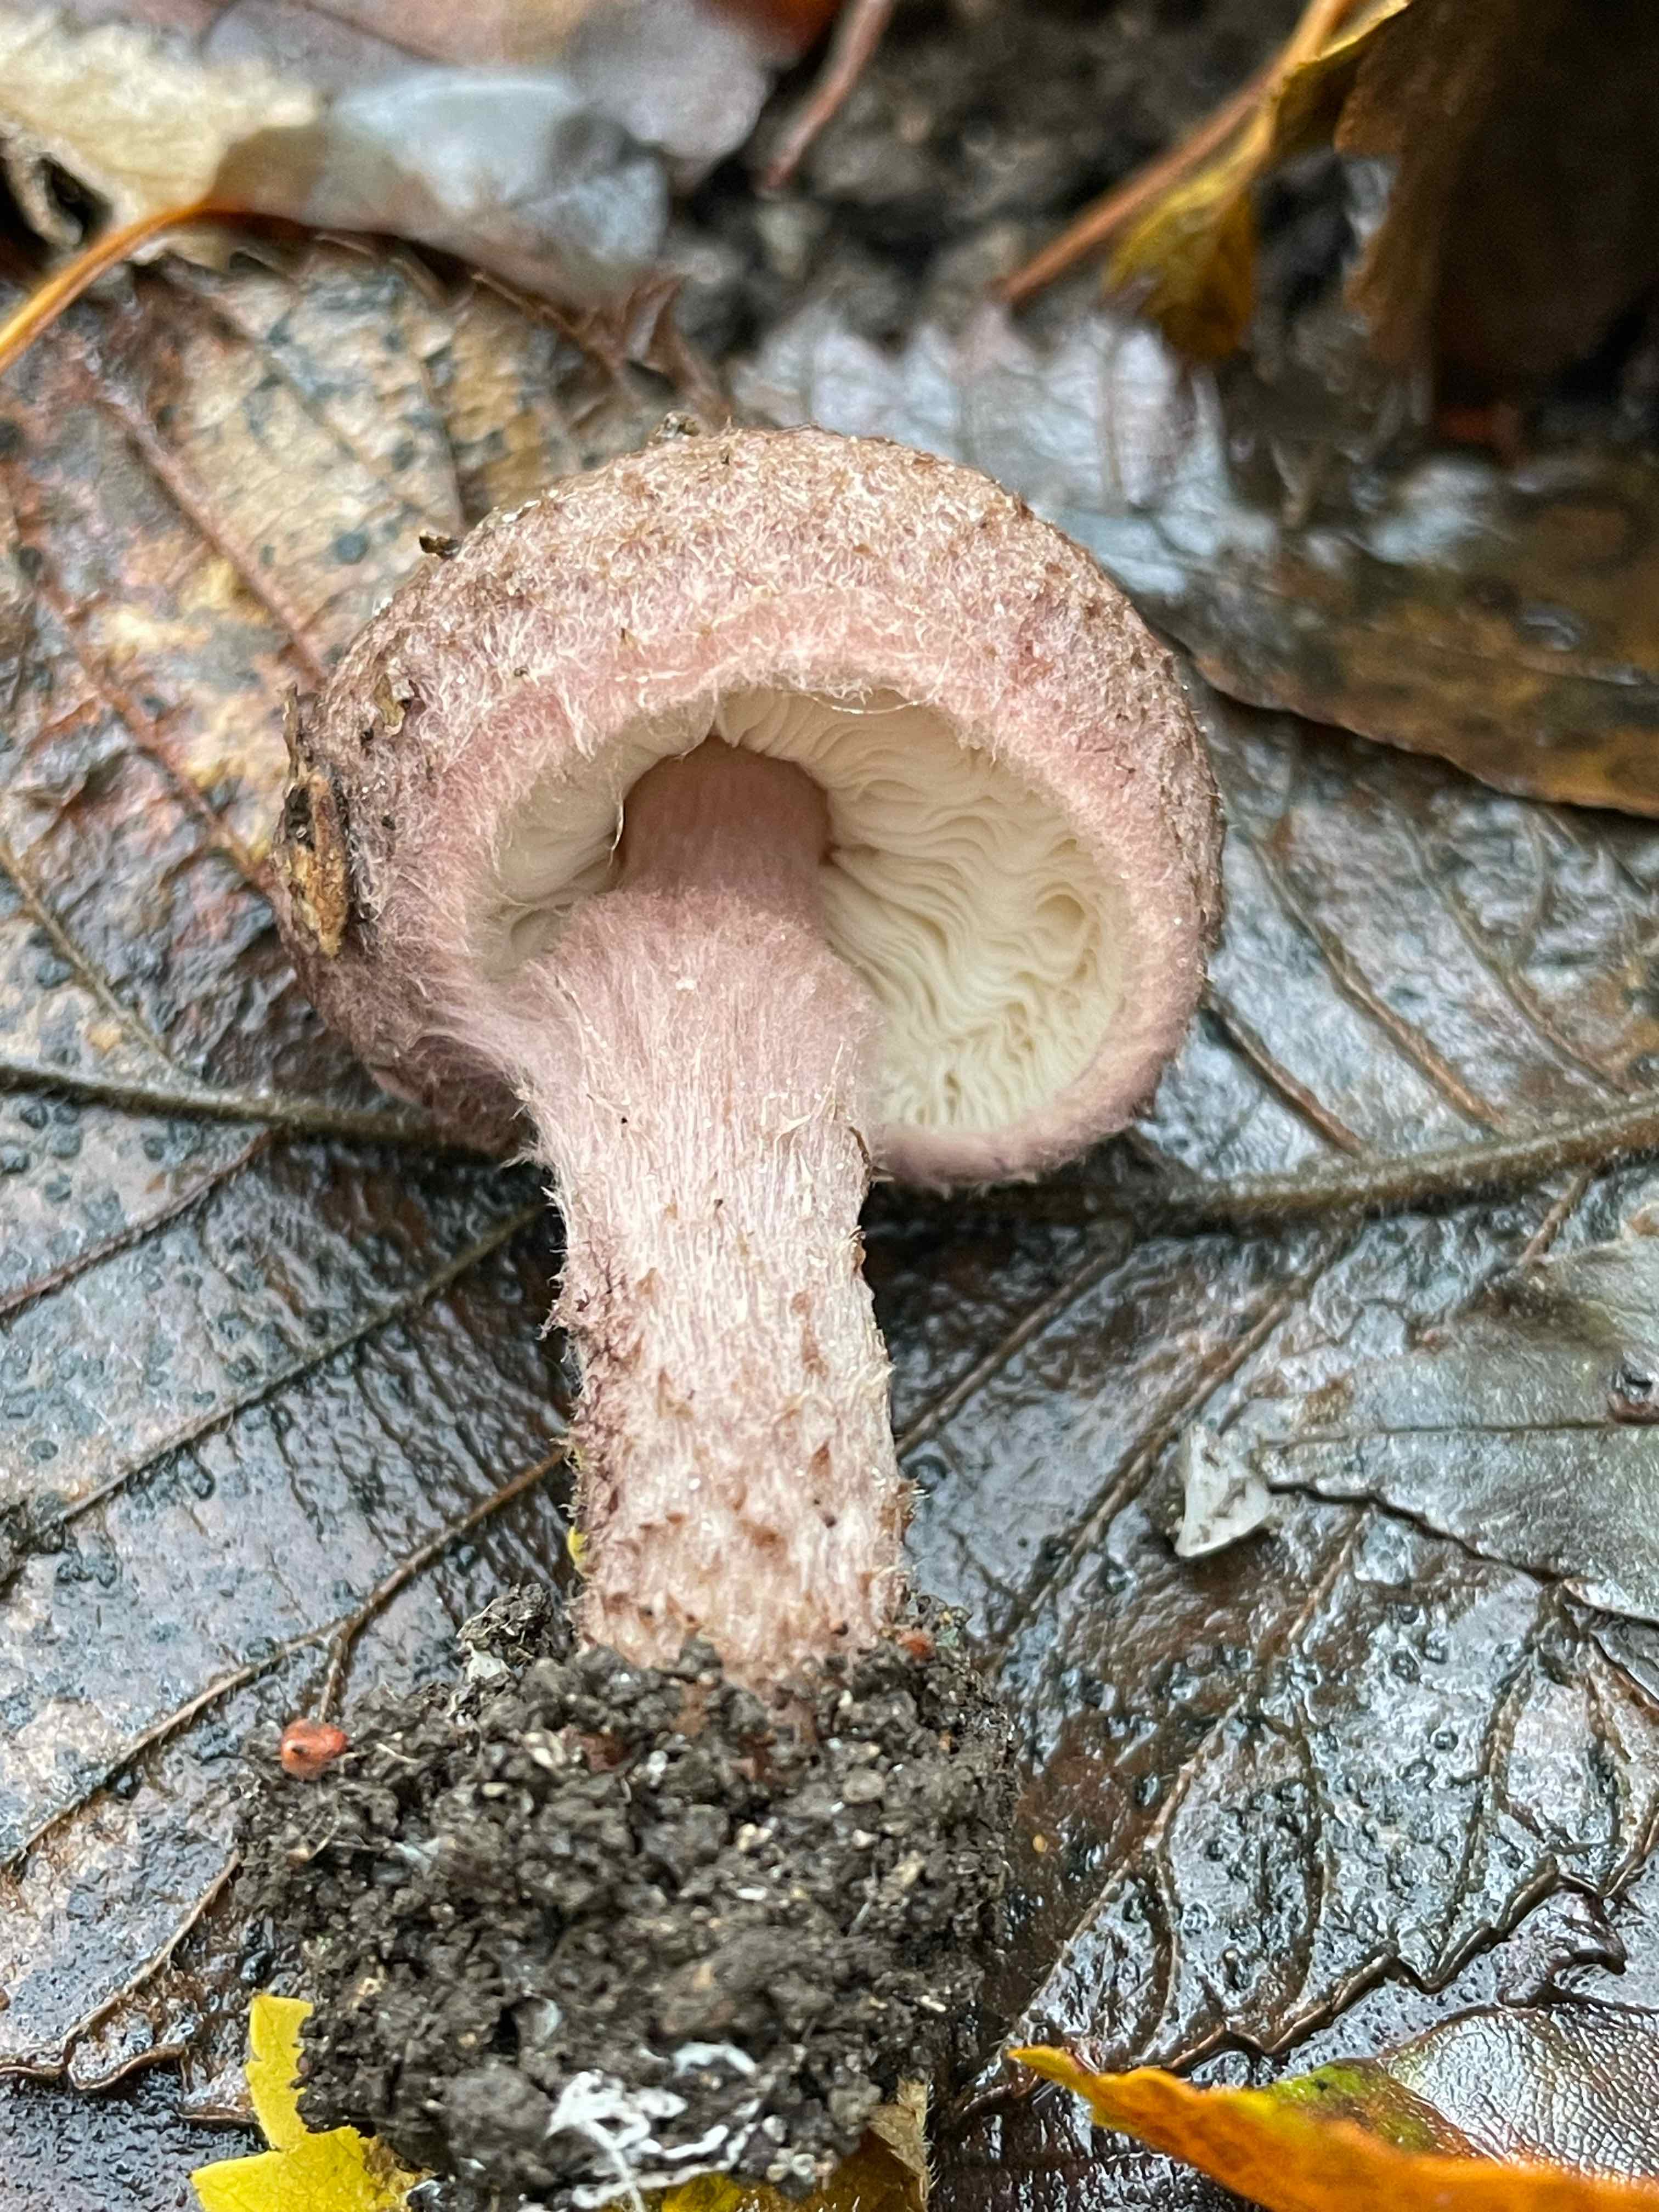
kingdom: Fungi
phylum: Basidiomycota
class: Agaricomycetes
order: Agaricales
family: Agaricaceae
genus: Lepiota
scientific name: Lepiota fuscovinacea
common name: vinrød parasolhat
